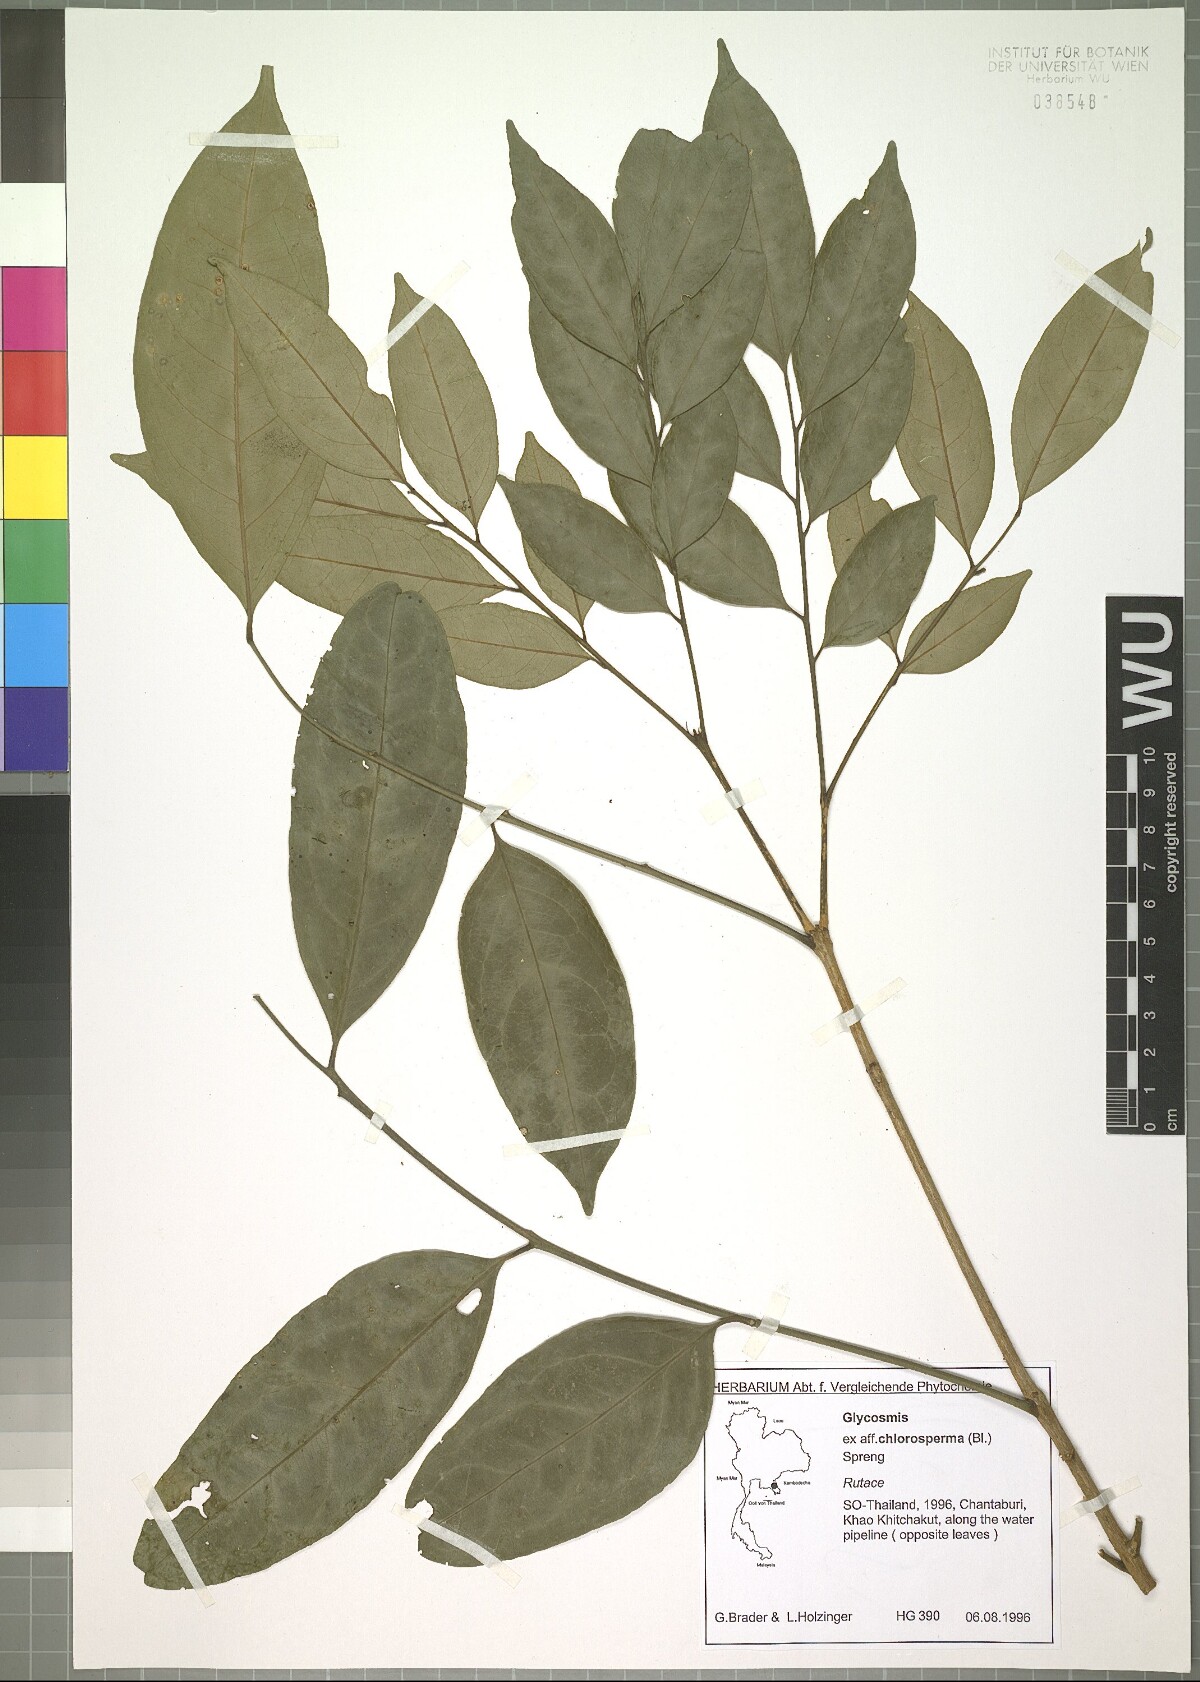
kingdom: Plantae
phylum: Tracheophyta
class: Magnoliopsida
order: Sapindales
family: Rutaceae
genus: Glycosmis
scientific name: Glycosmis chlorosperma
